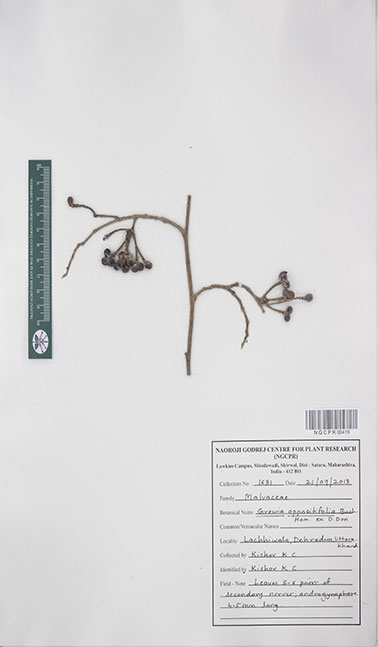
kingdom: Plantae
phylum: Tracheophyta
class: Magnoliopsida
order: Malvales
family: Malvaceae
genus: Grewia
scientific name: Grewia oppositifolia
